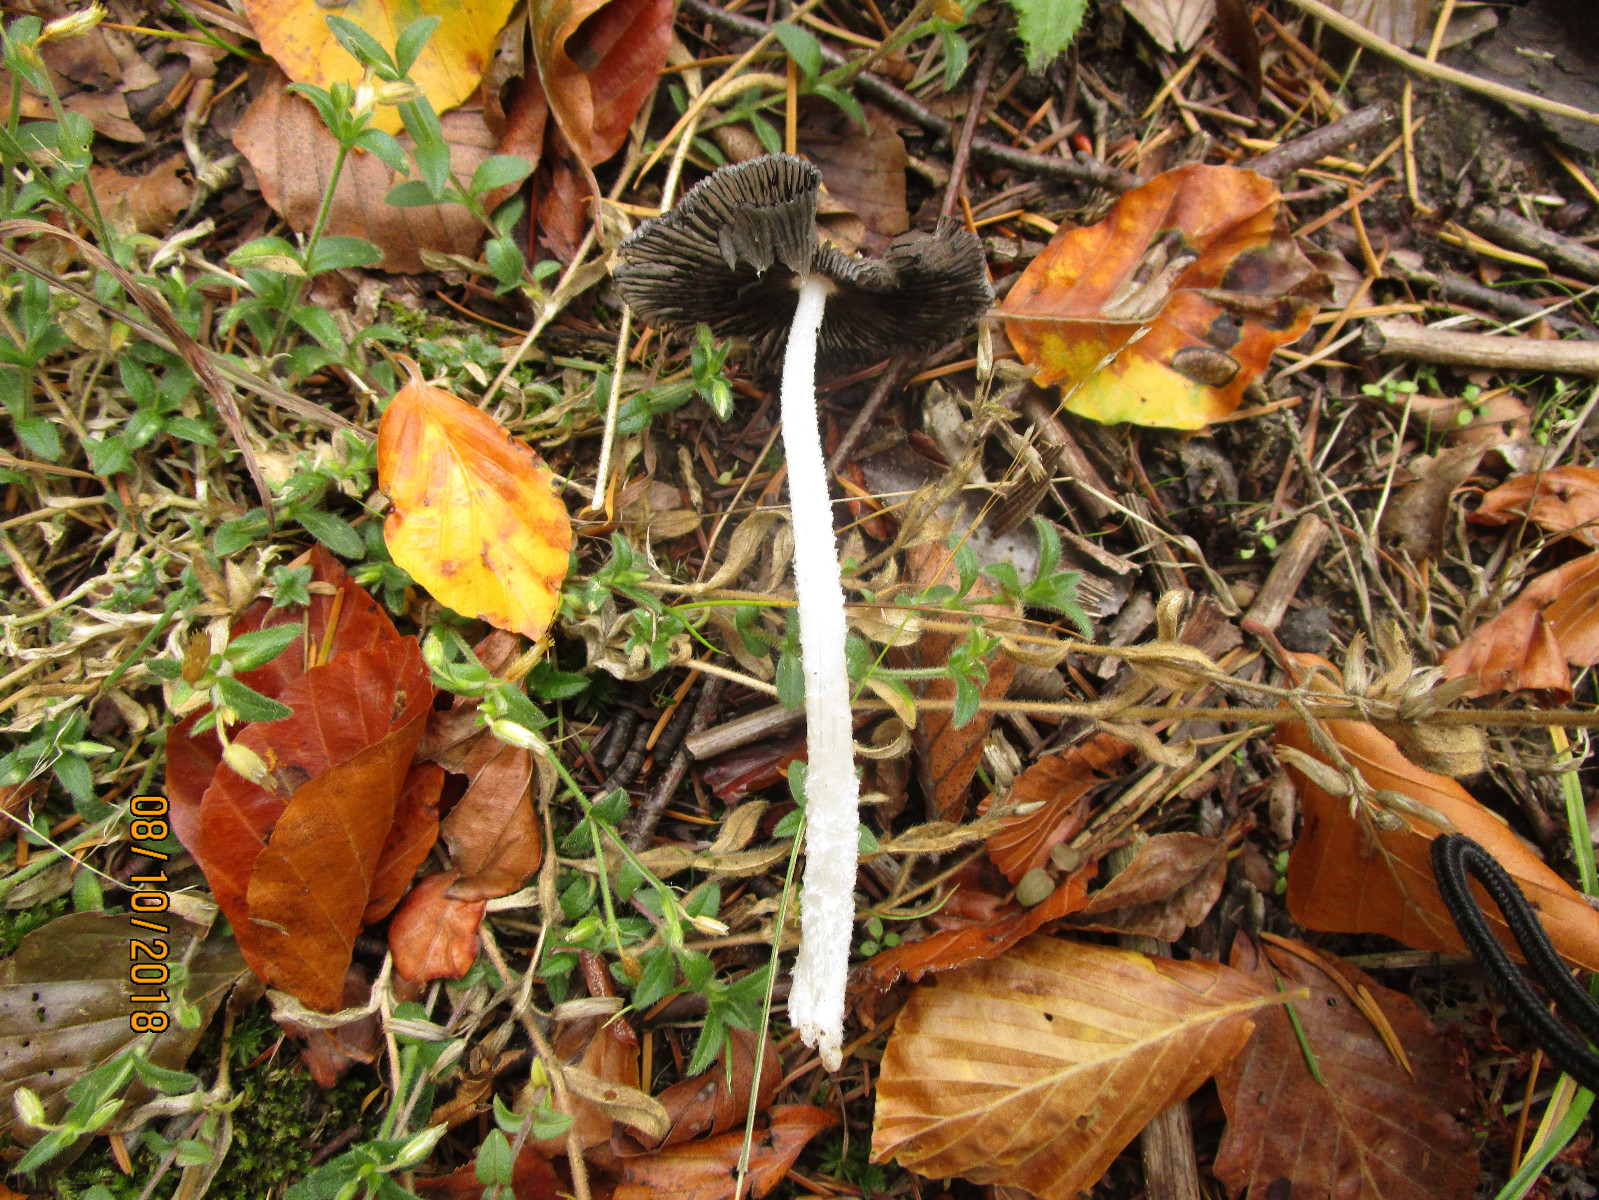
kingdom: Fungi
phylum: Basidiomycota
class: Agaricomycetes
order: Agaricales
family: Psathyrellaceae
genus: Coprinopsis
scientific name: Coprinopsis lagopus
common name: dunstokket blækhat
